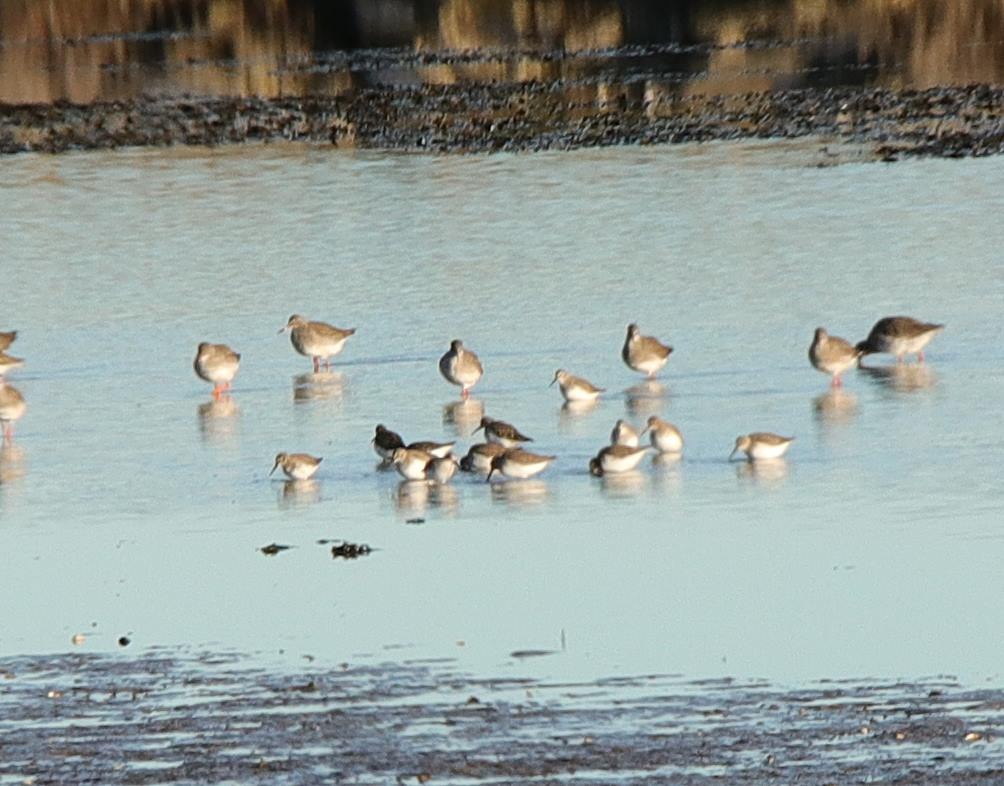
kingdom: Animalia
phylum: Chordata
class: Aves
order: Charadriiformes
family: Scolopacidae
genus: Calidris
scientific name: Calidris alpina
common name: Almindelig ryle
